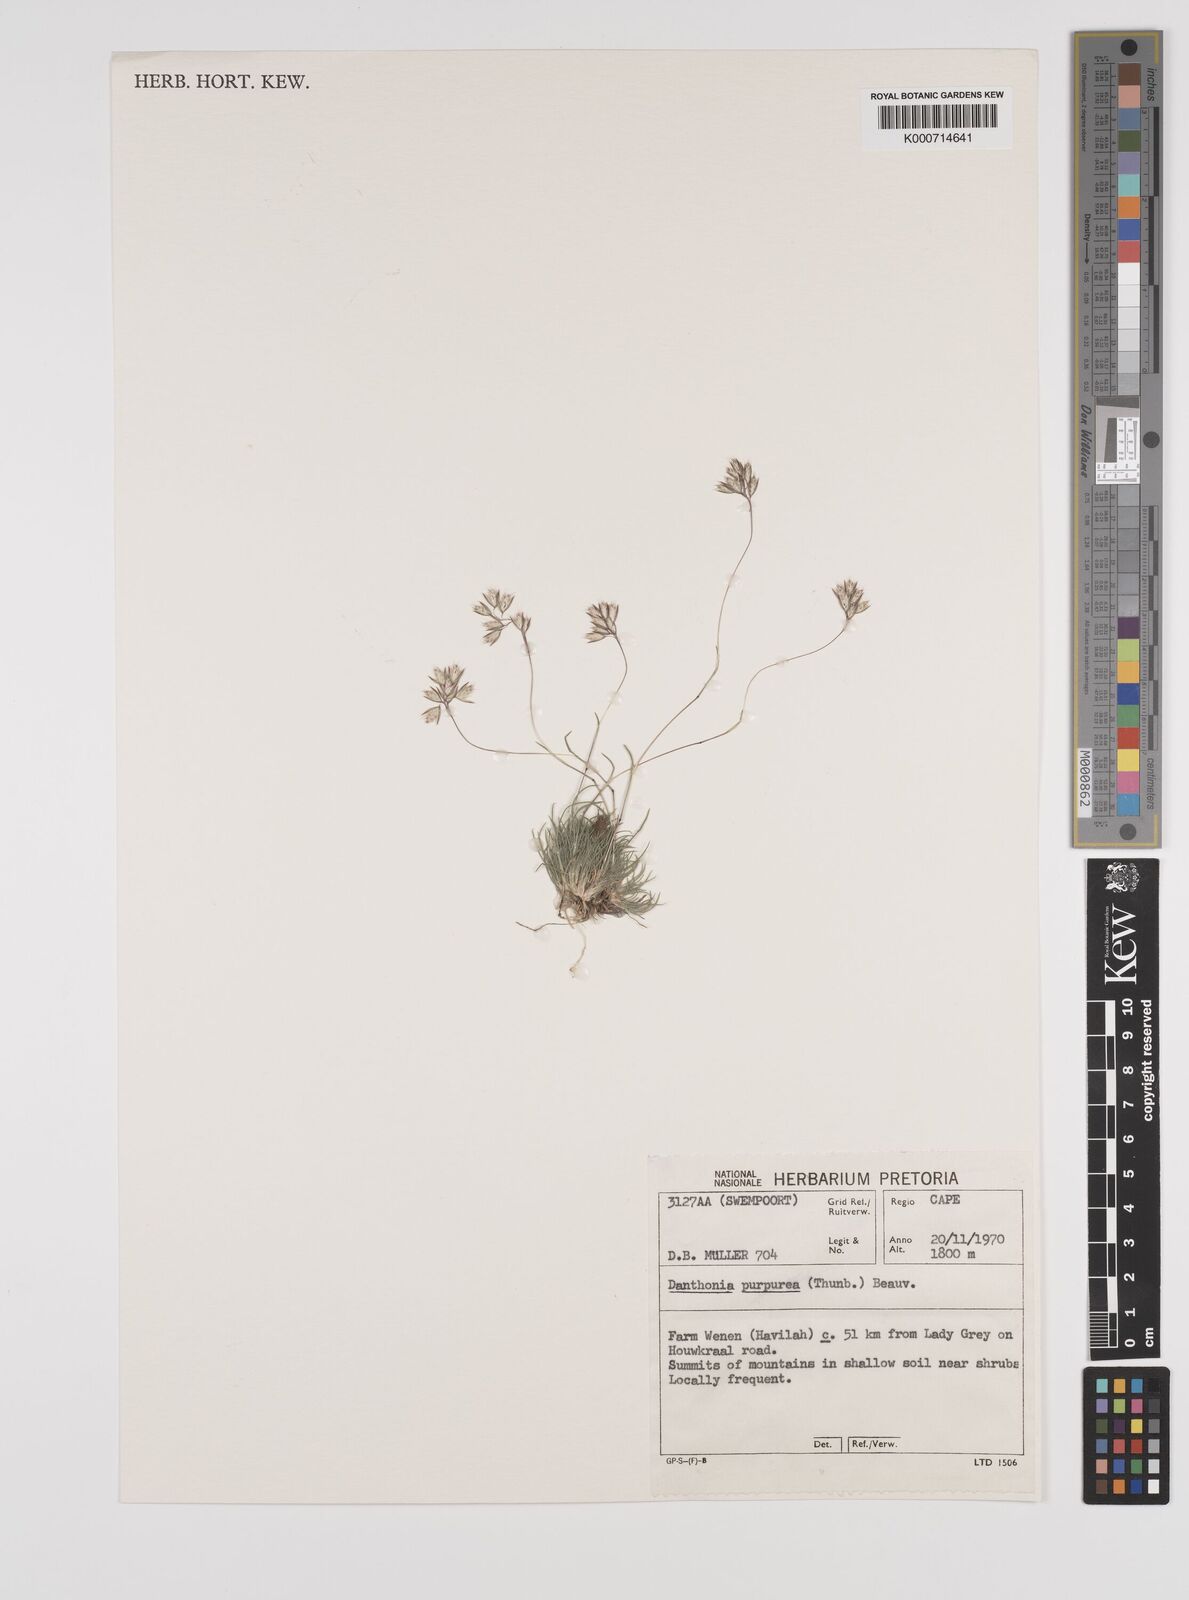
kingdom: Plantae
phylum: Tracheophyta
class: Liliopsida
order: Poales
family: Poaceae
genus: Rytidosperma
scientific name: Rytidosperma
